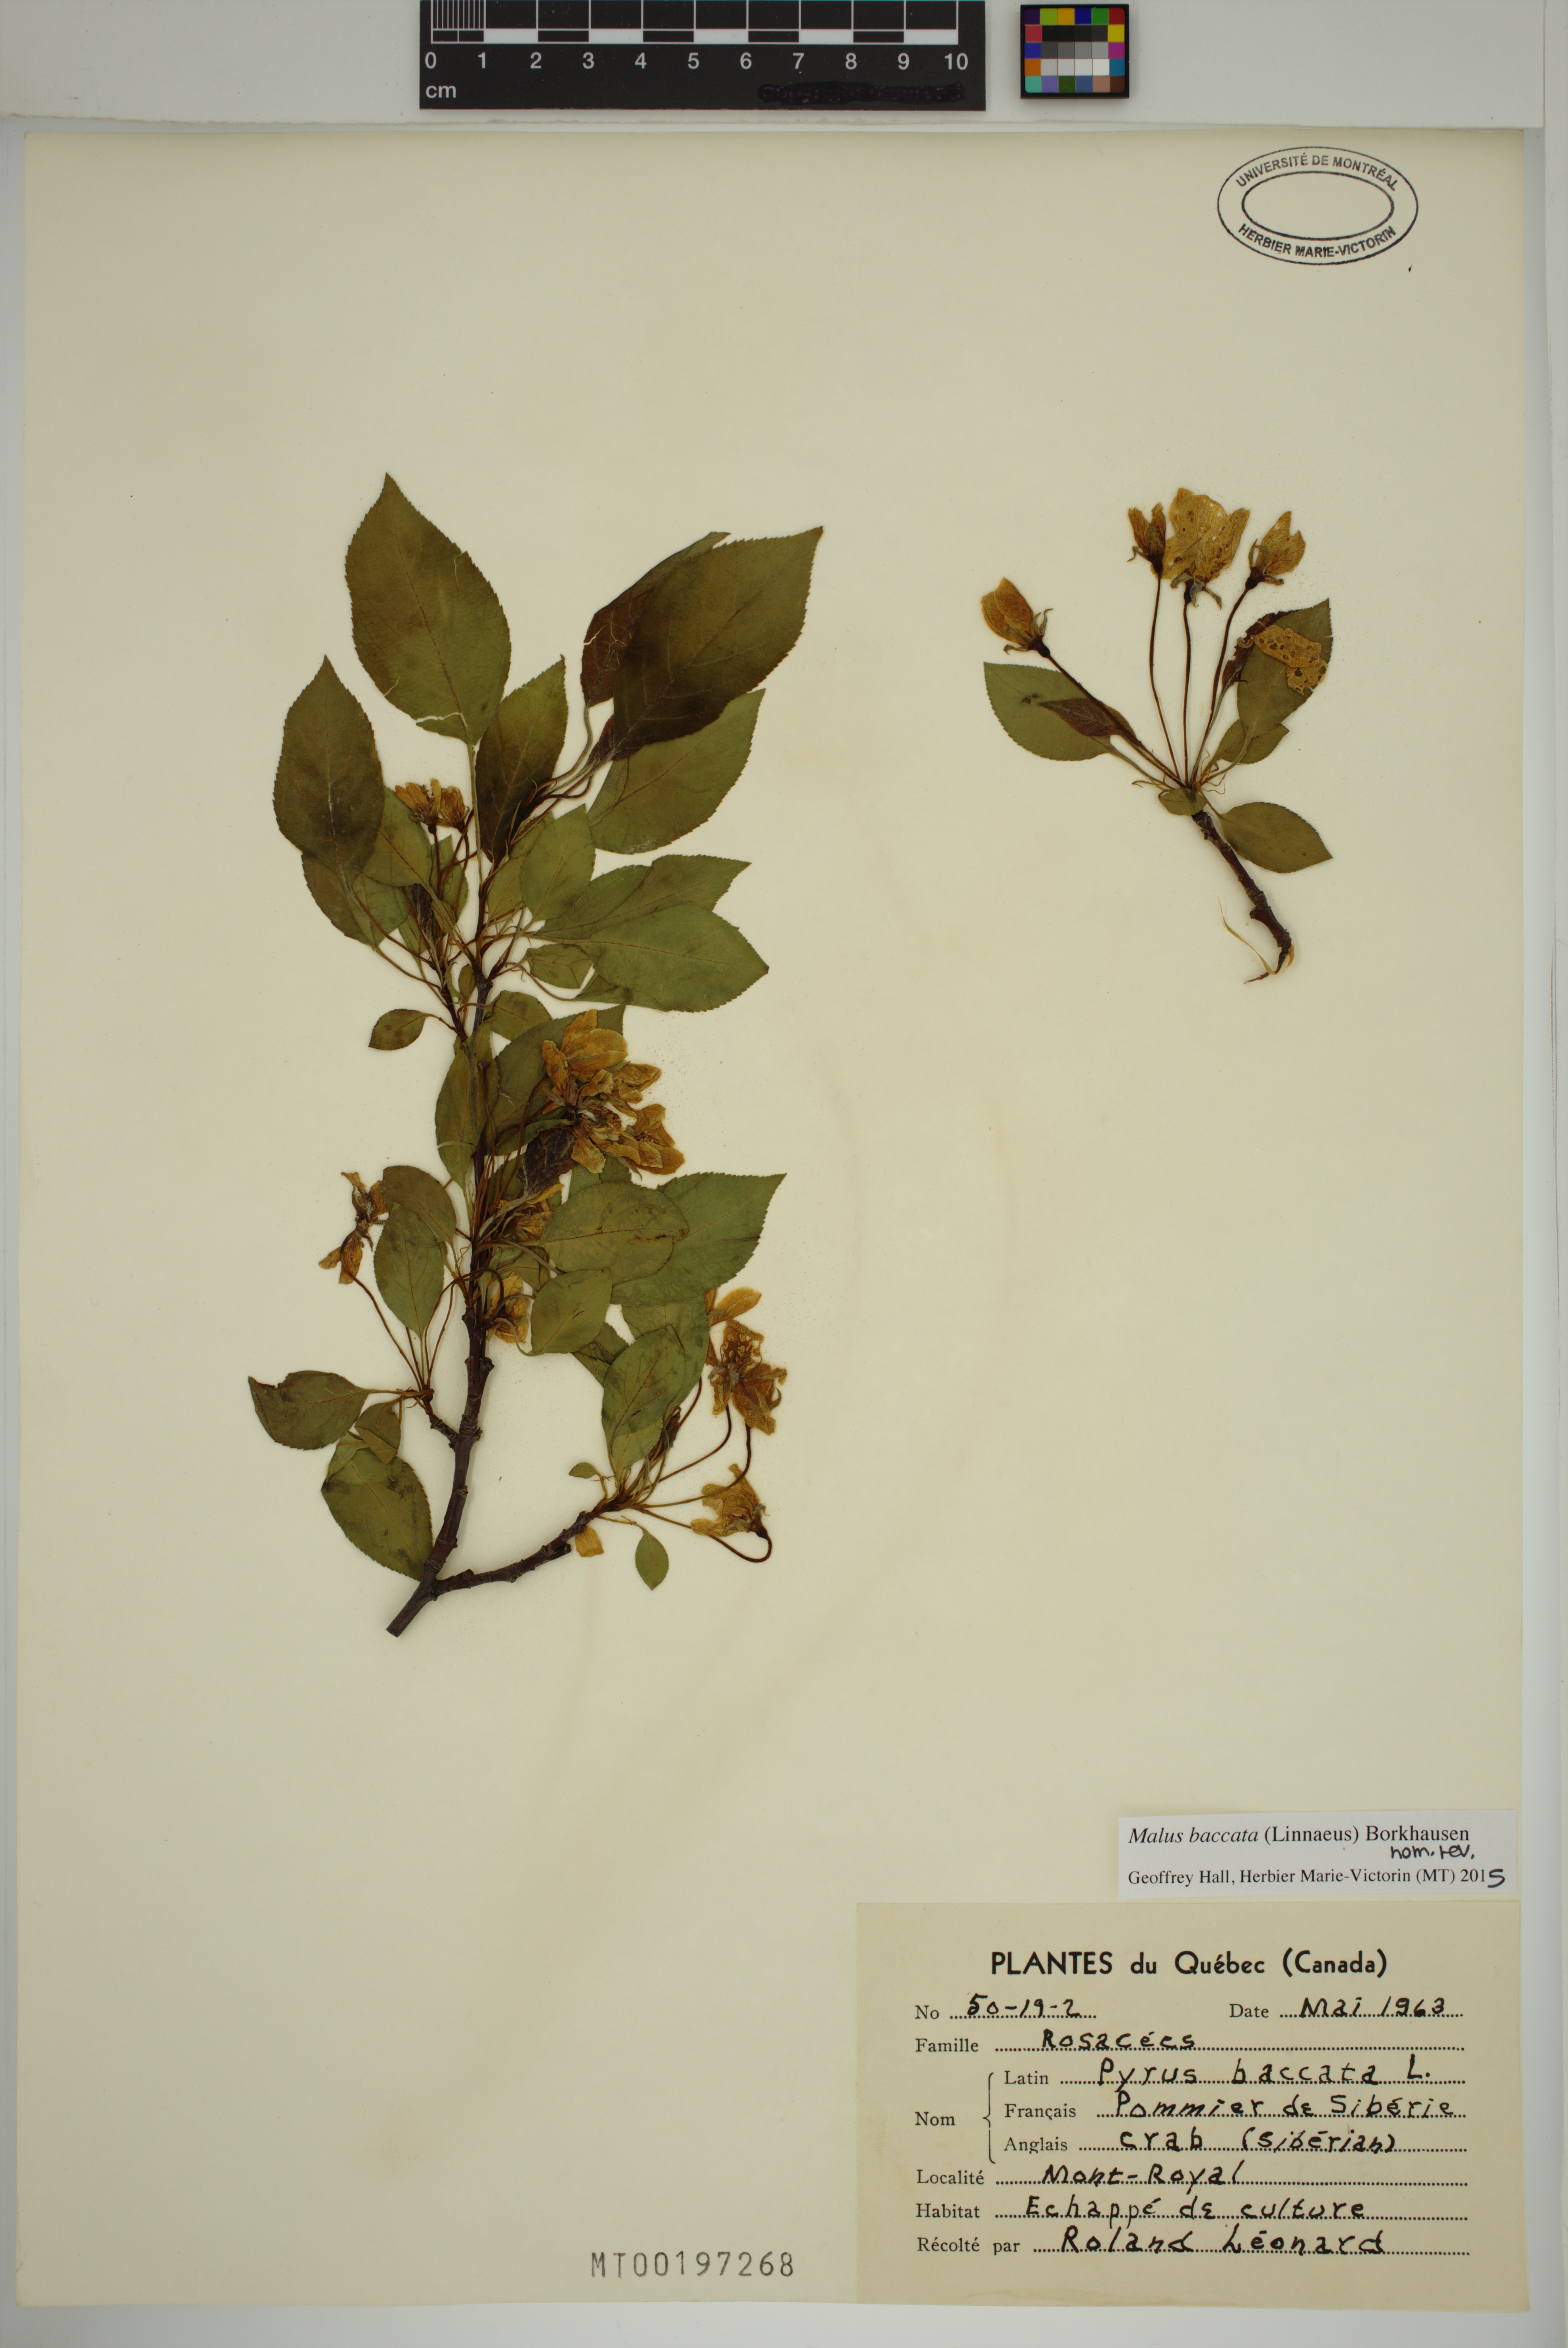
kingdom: Plantae
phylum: Tracheophyta
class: Magnoliopsida
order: Rosales
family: Rosaceae
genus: Malus
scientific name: Malus baccata
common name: Siberian crab
